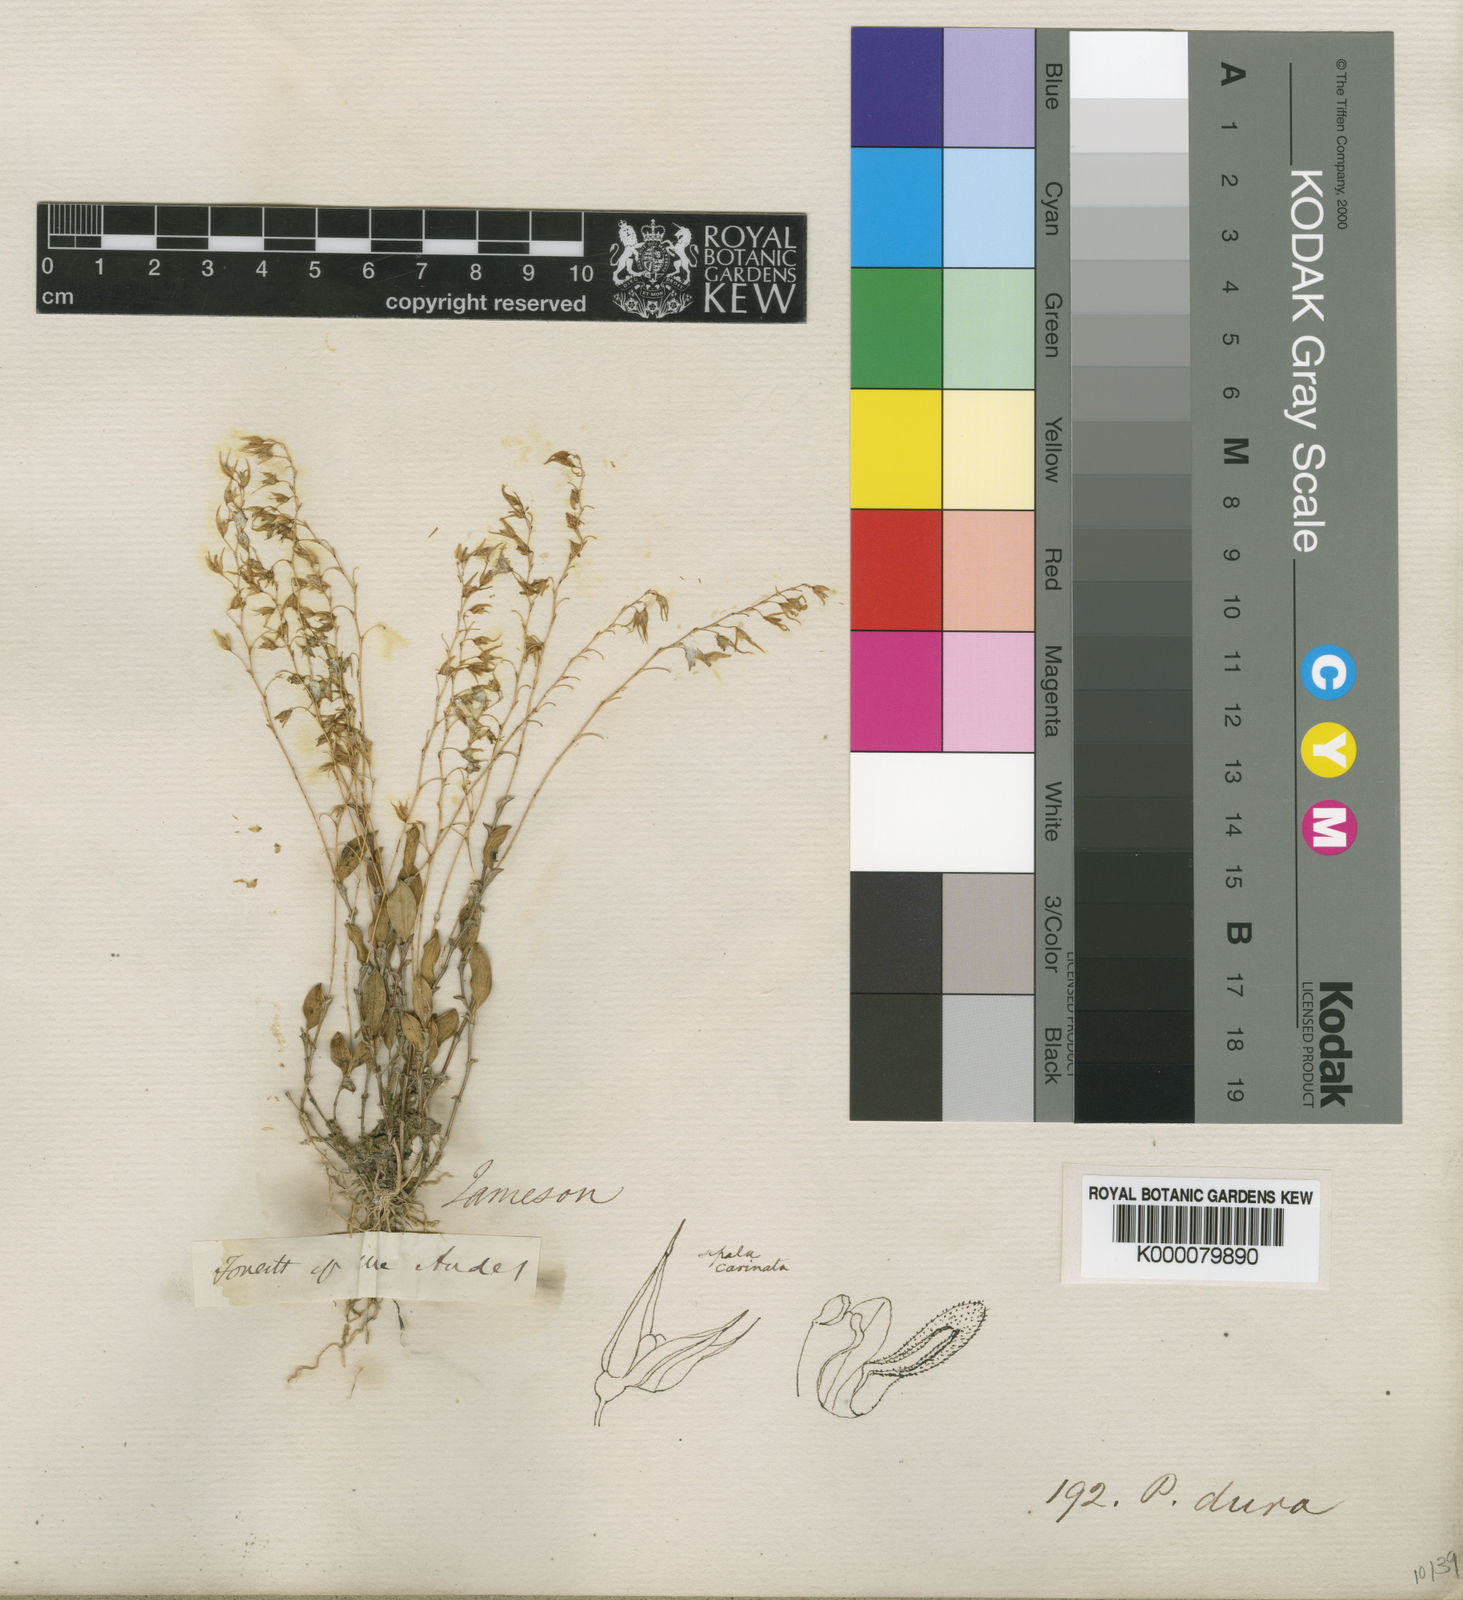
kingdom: Plantae
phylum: Tracheophyta
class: Liliopsida
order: Asparagales
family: Orchidaceae
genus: Trichosalpinx
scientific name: Trichosalpinx dura
